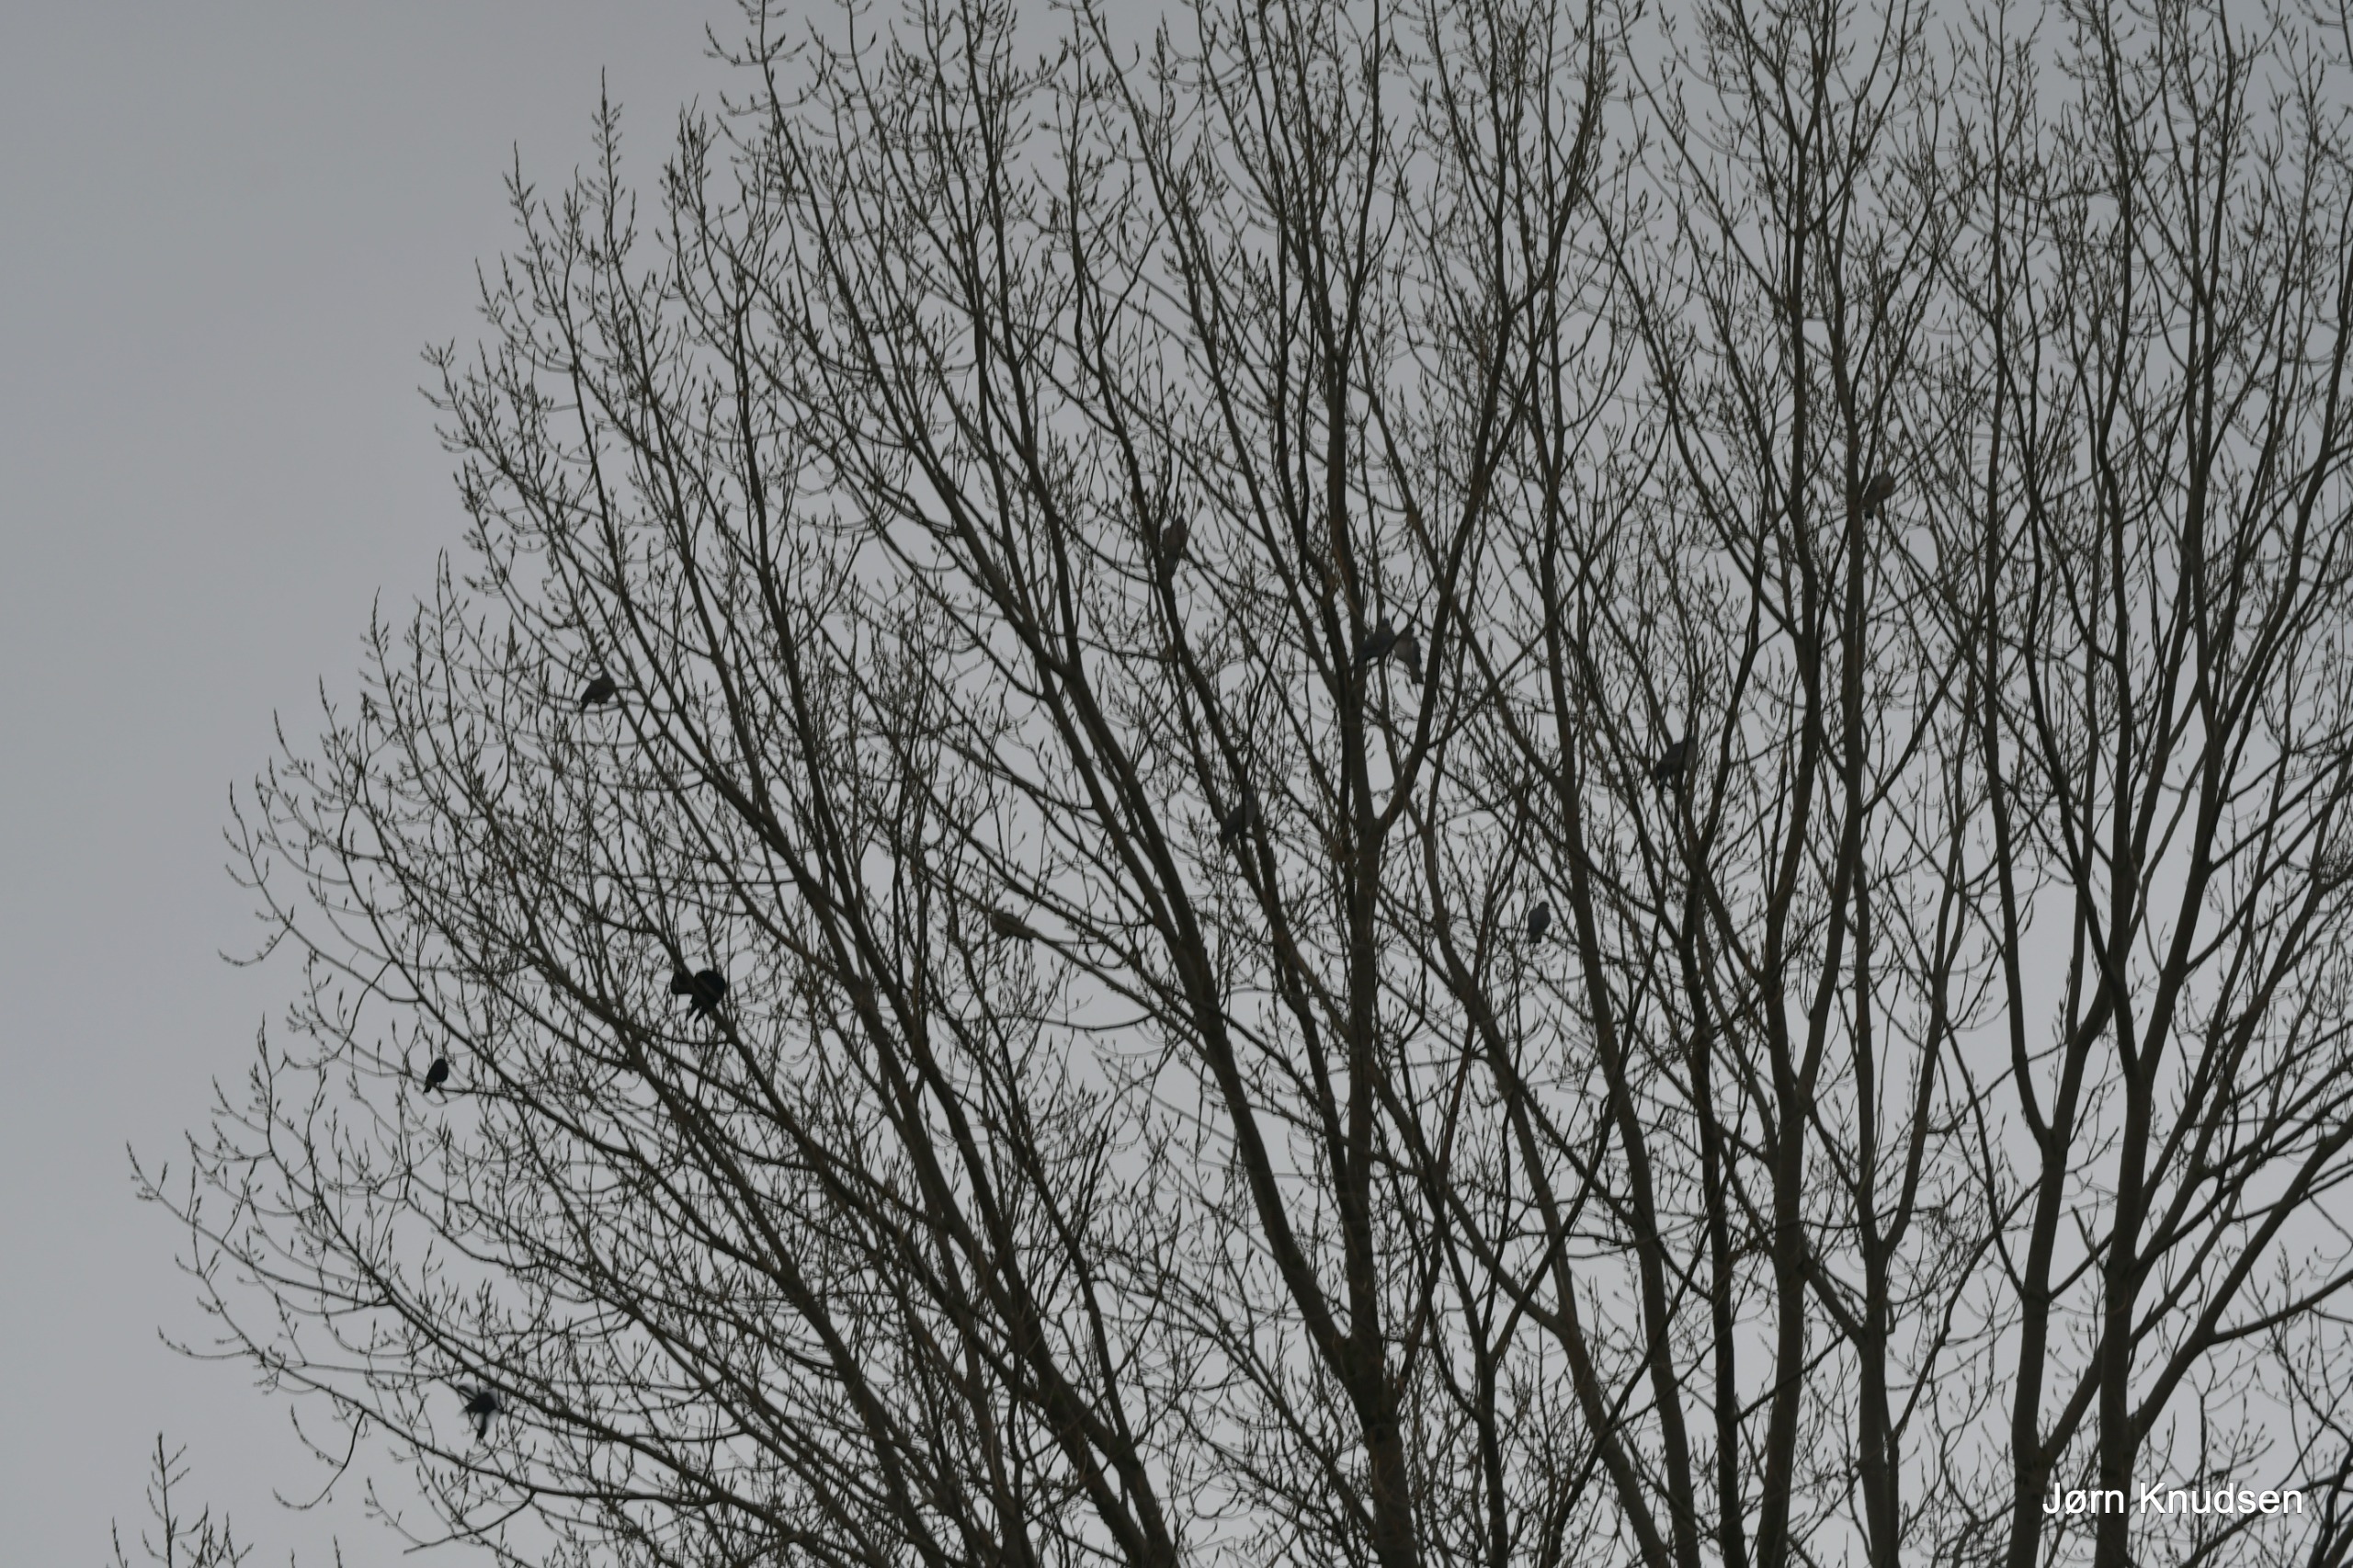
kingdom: Animalia
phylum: Chordata
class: Aves
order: Passeriformes
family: Corvidae
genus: Corvus
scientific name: Corvus frugilegus
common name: Råge
